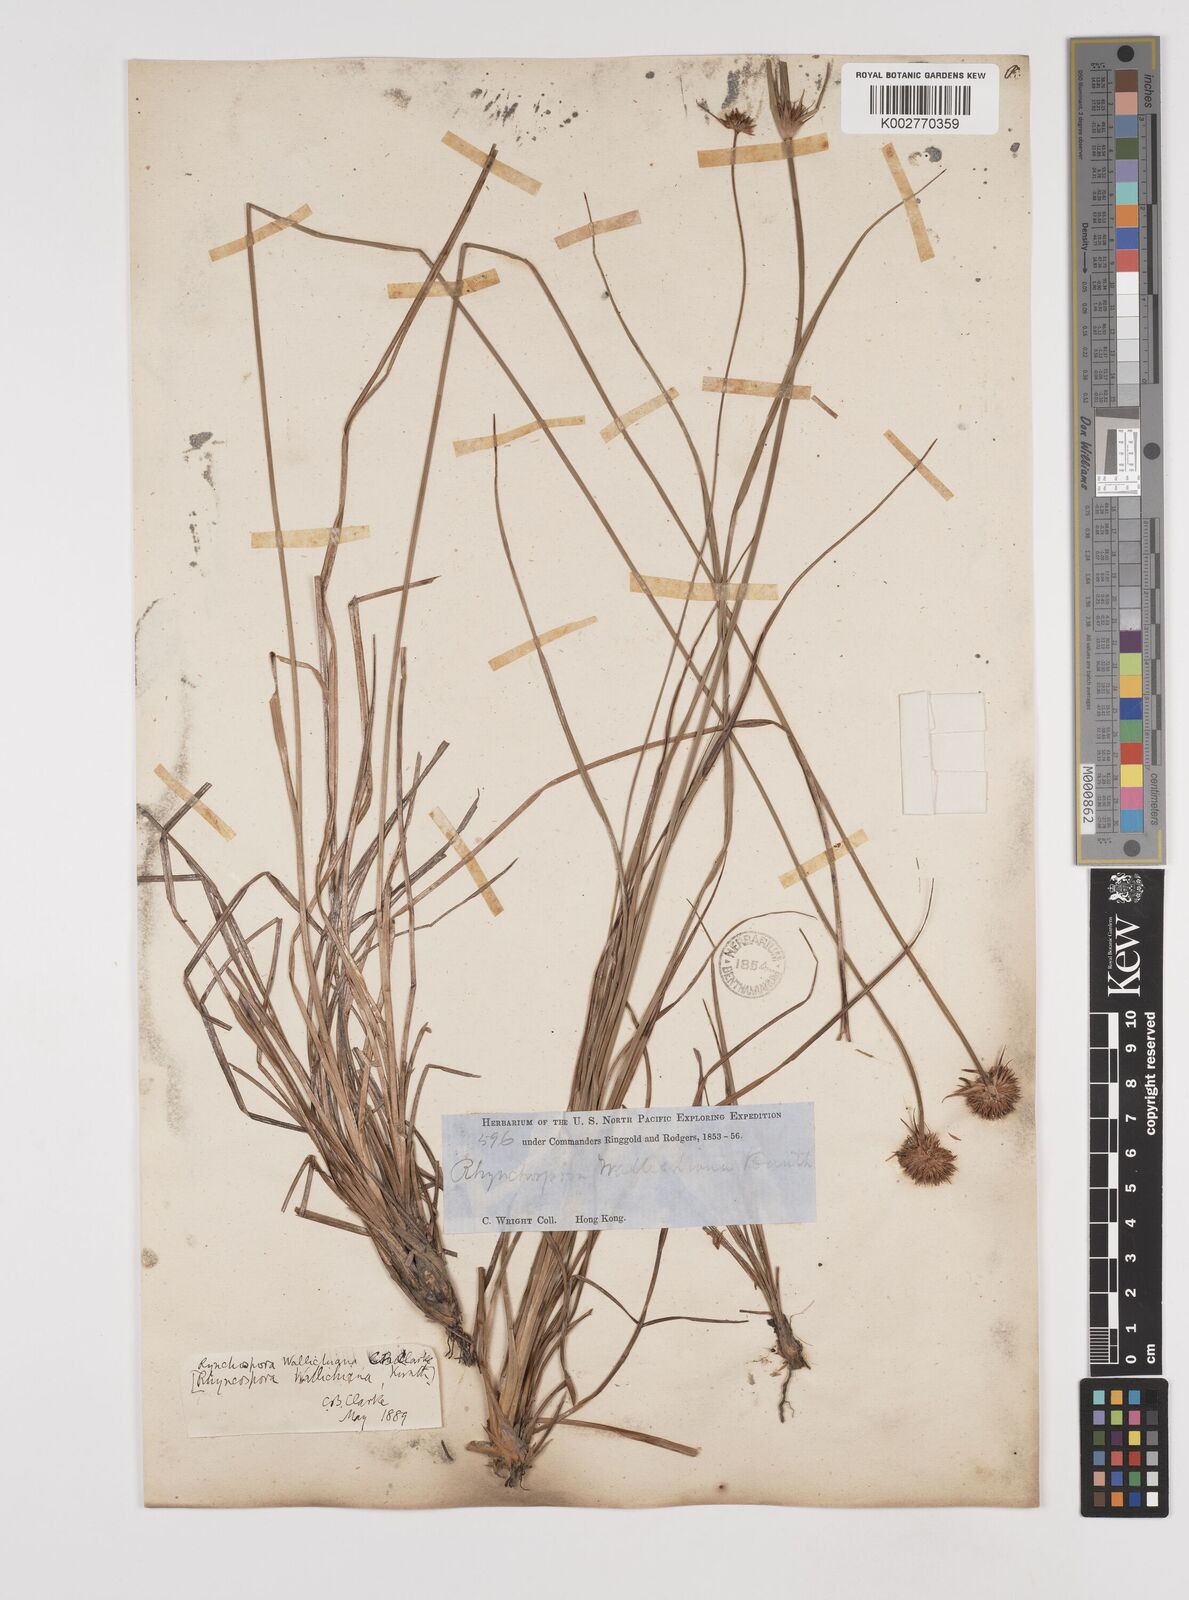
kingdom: Plantae
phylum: Tracheophyta
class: Liliopsida
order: Poales
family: Cyperaceae
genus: Rhynchospora
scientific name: Rhynchospora rubra
